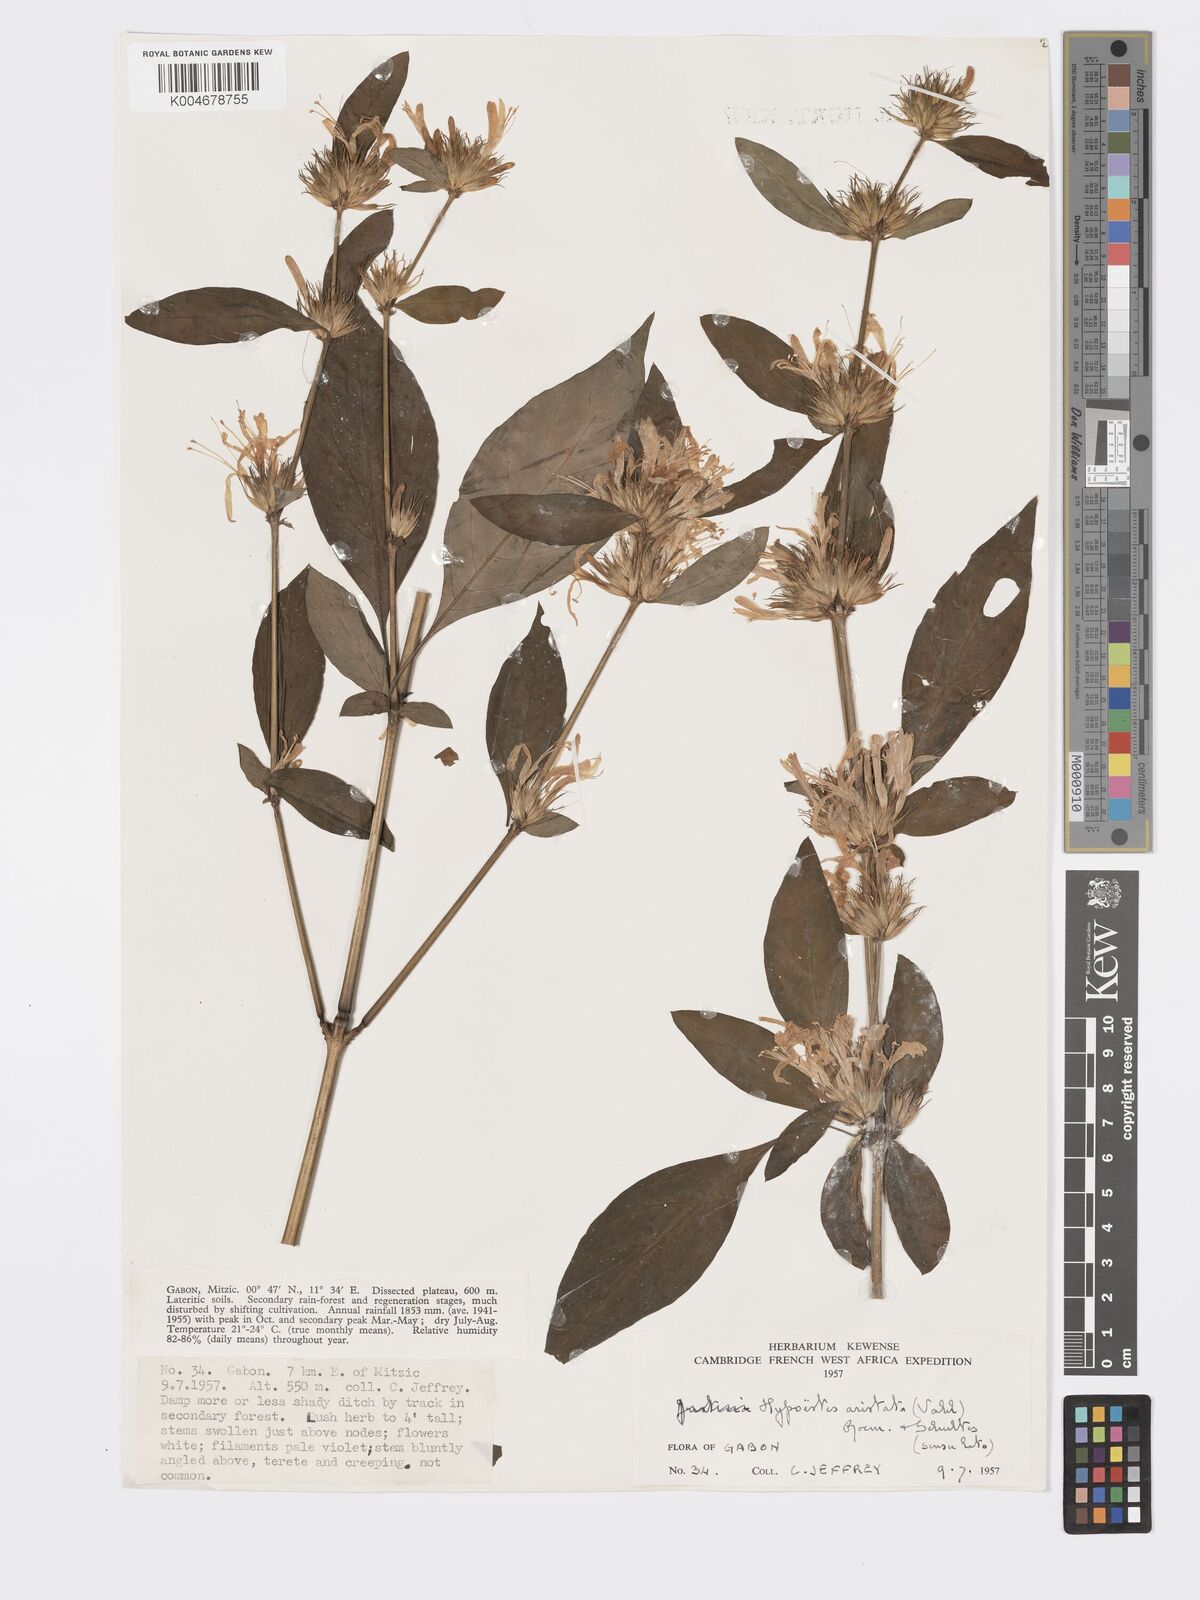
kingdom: Plantae
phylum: Tracheophyta
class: Magnoliopsida
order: Lamiales
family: Acanthaceae
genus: Hypoestes
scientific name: Hypoestes aristata
